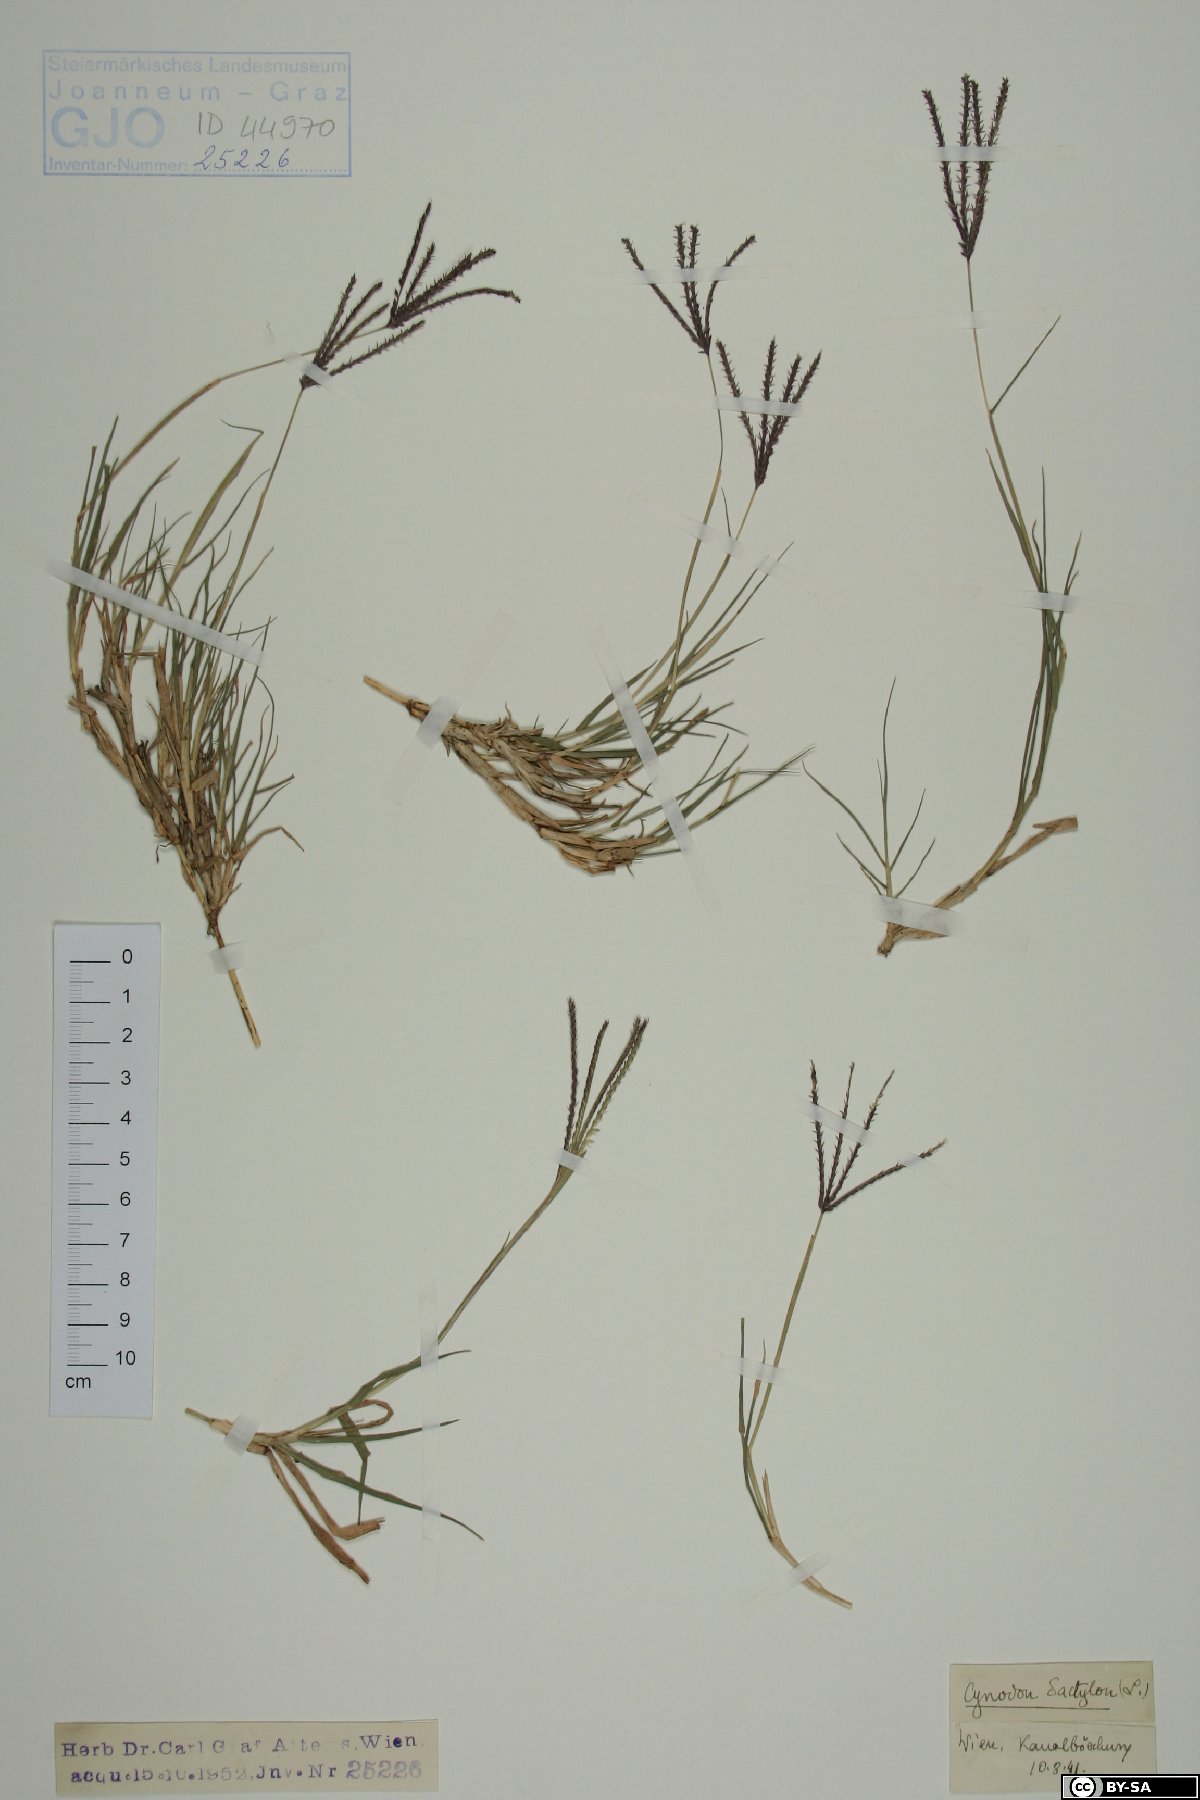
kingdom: Plantae
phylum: Tracheophyta
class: Liliopsida
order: Poales
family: Poaceae
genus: Cynodon
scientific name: Cynodon dactylon
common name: Bermuda grass
